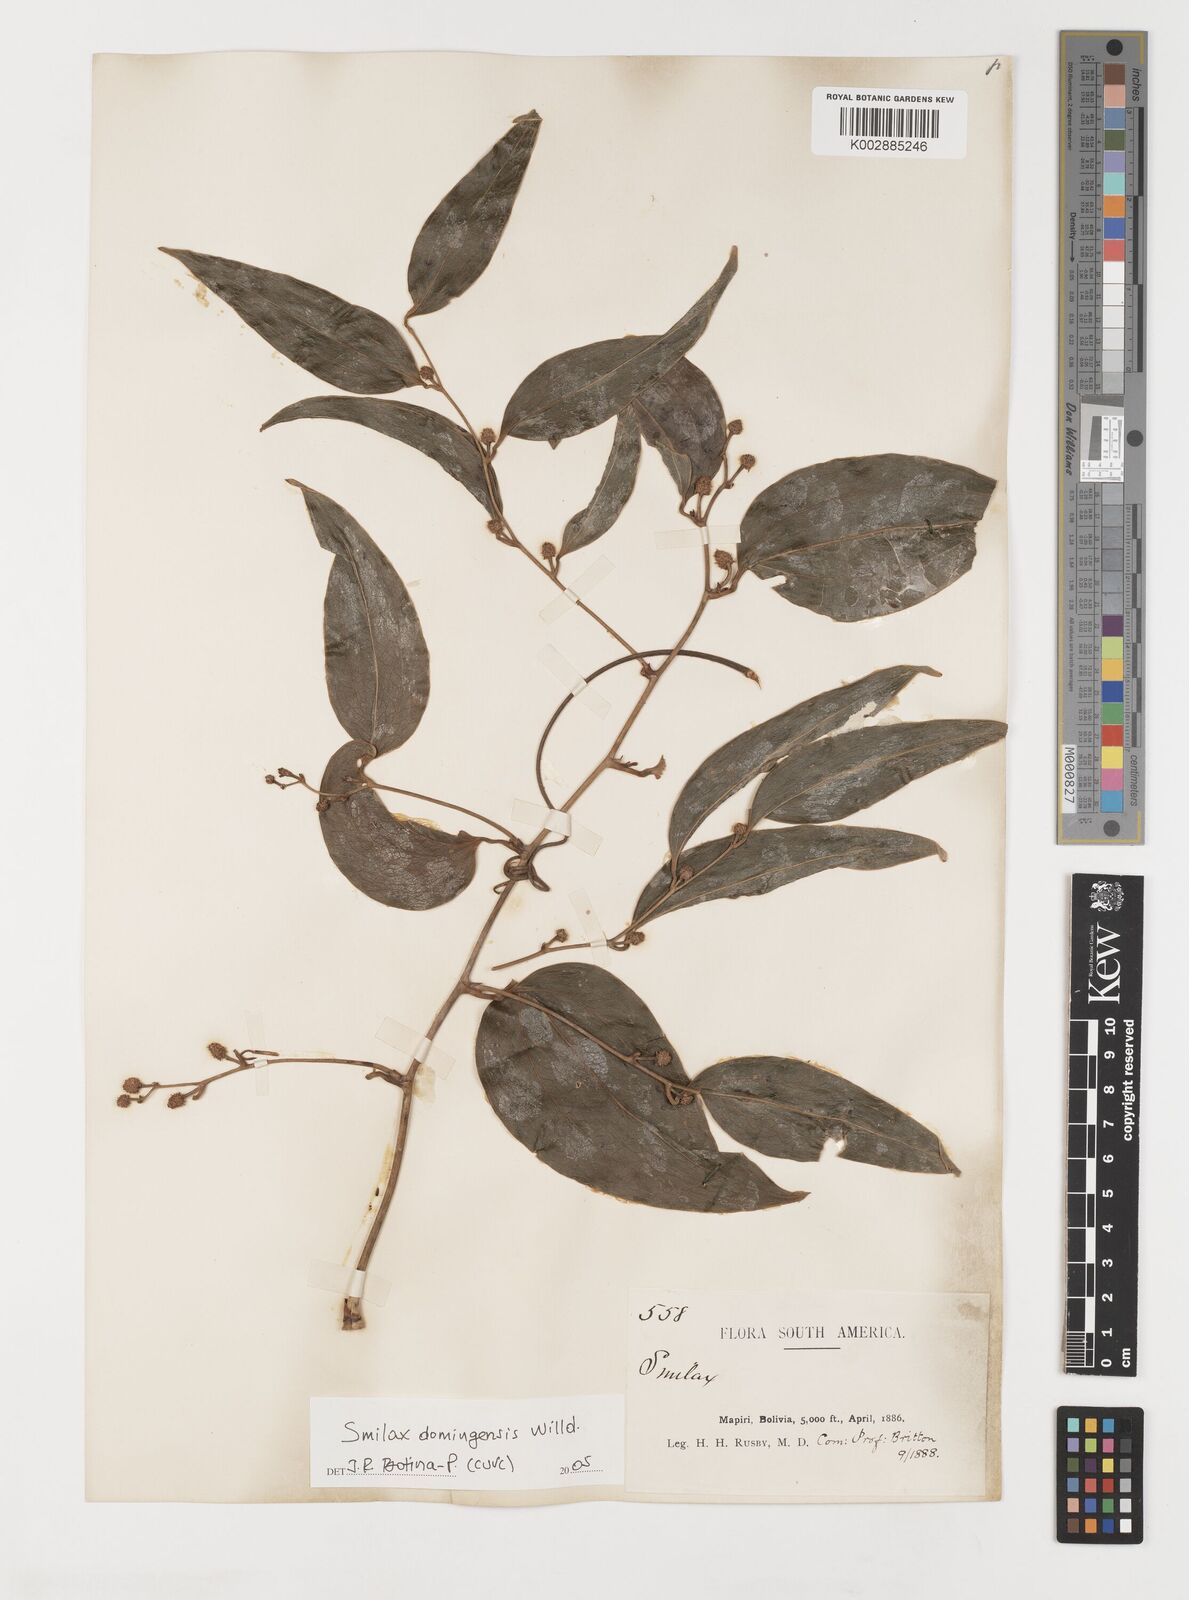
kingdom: Plantae
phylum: Tracheophyta
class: Liliopsida
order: Liliales
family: Smilacaceae
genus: Smilax
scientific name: Smilax domingensis
